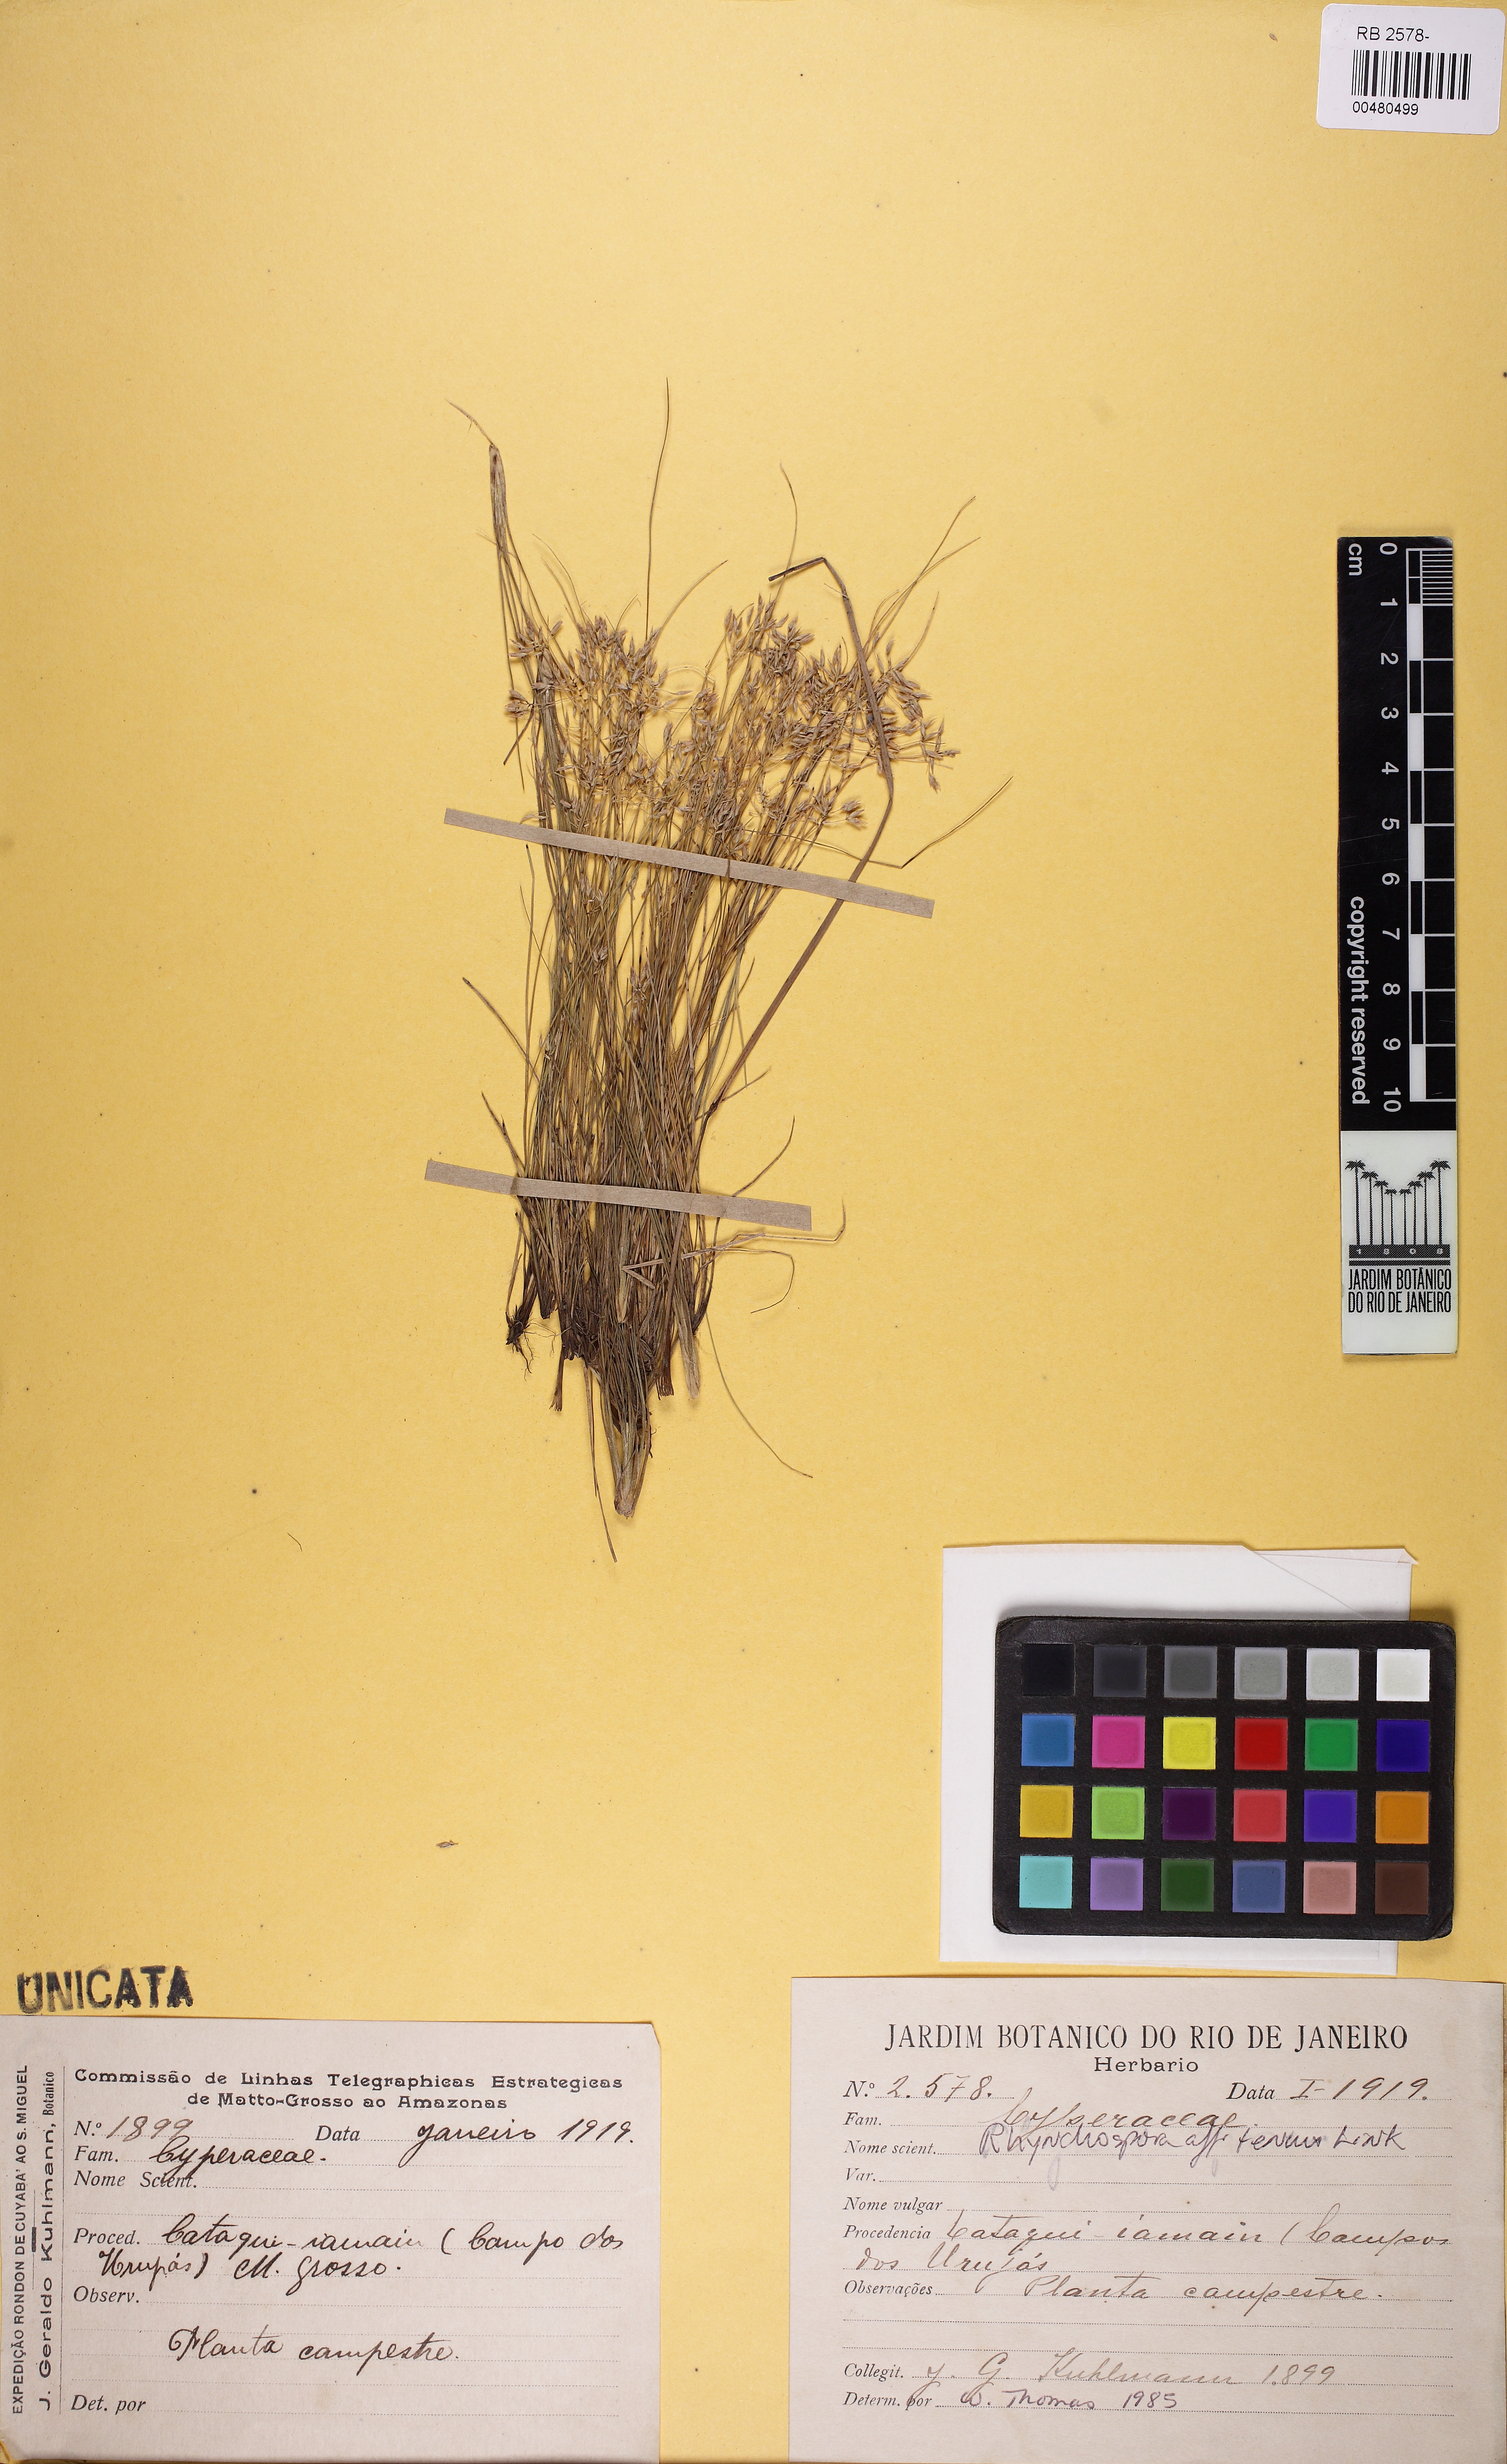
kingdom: Plantae
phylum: Tracheophyta
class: Liliopsida
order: Poales
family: Cyperaceae
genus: Cyperus
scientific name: Cyperus coriifolius
